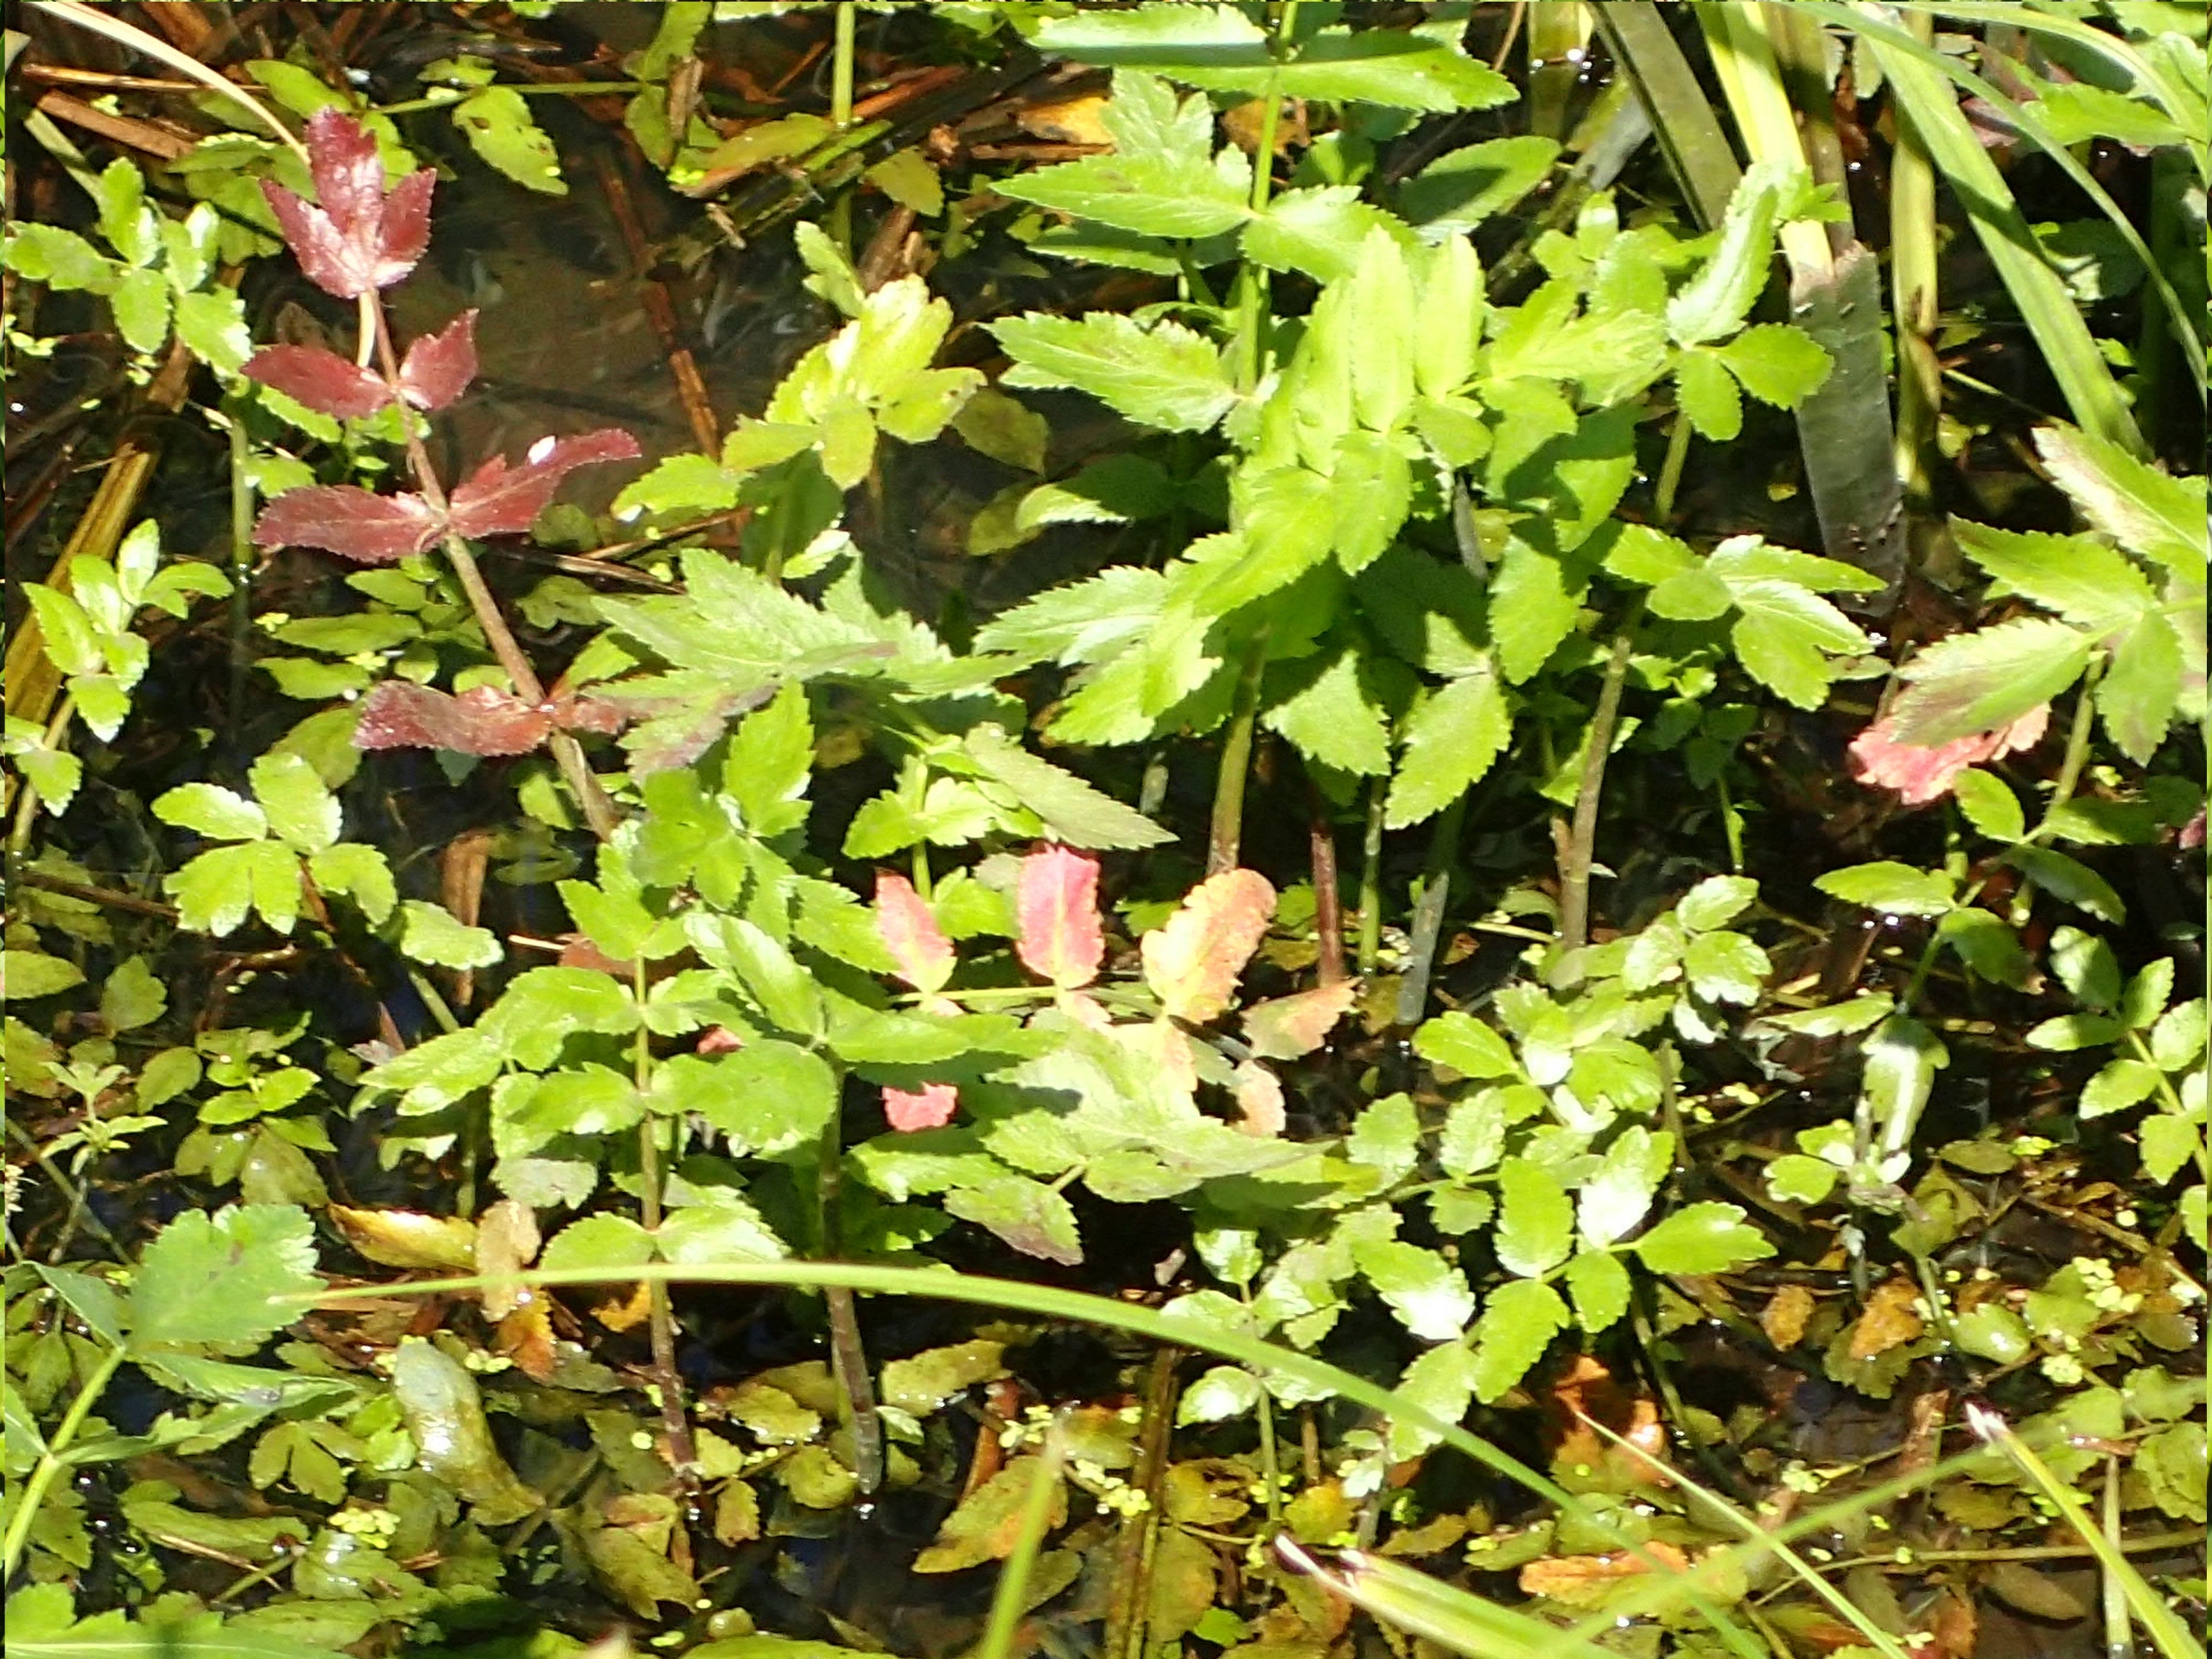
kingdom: Plantae
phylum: Tracheophyta
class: Magnoliopsida
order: Apiales
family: Apiaceae
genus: Berula
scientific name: Berula erecta
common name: Sideskærm
